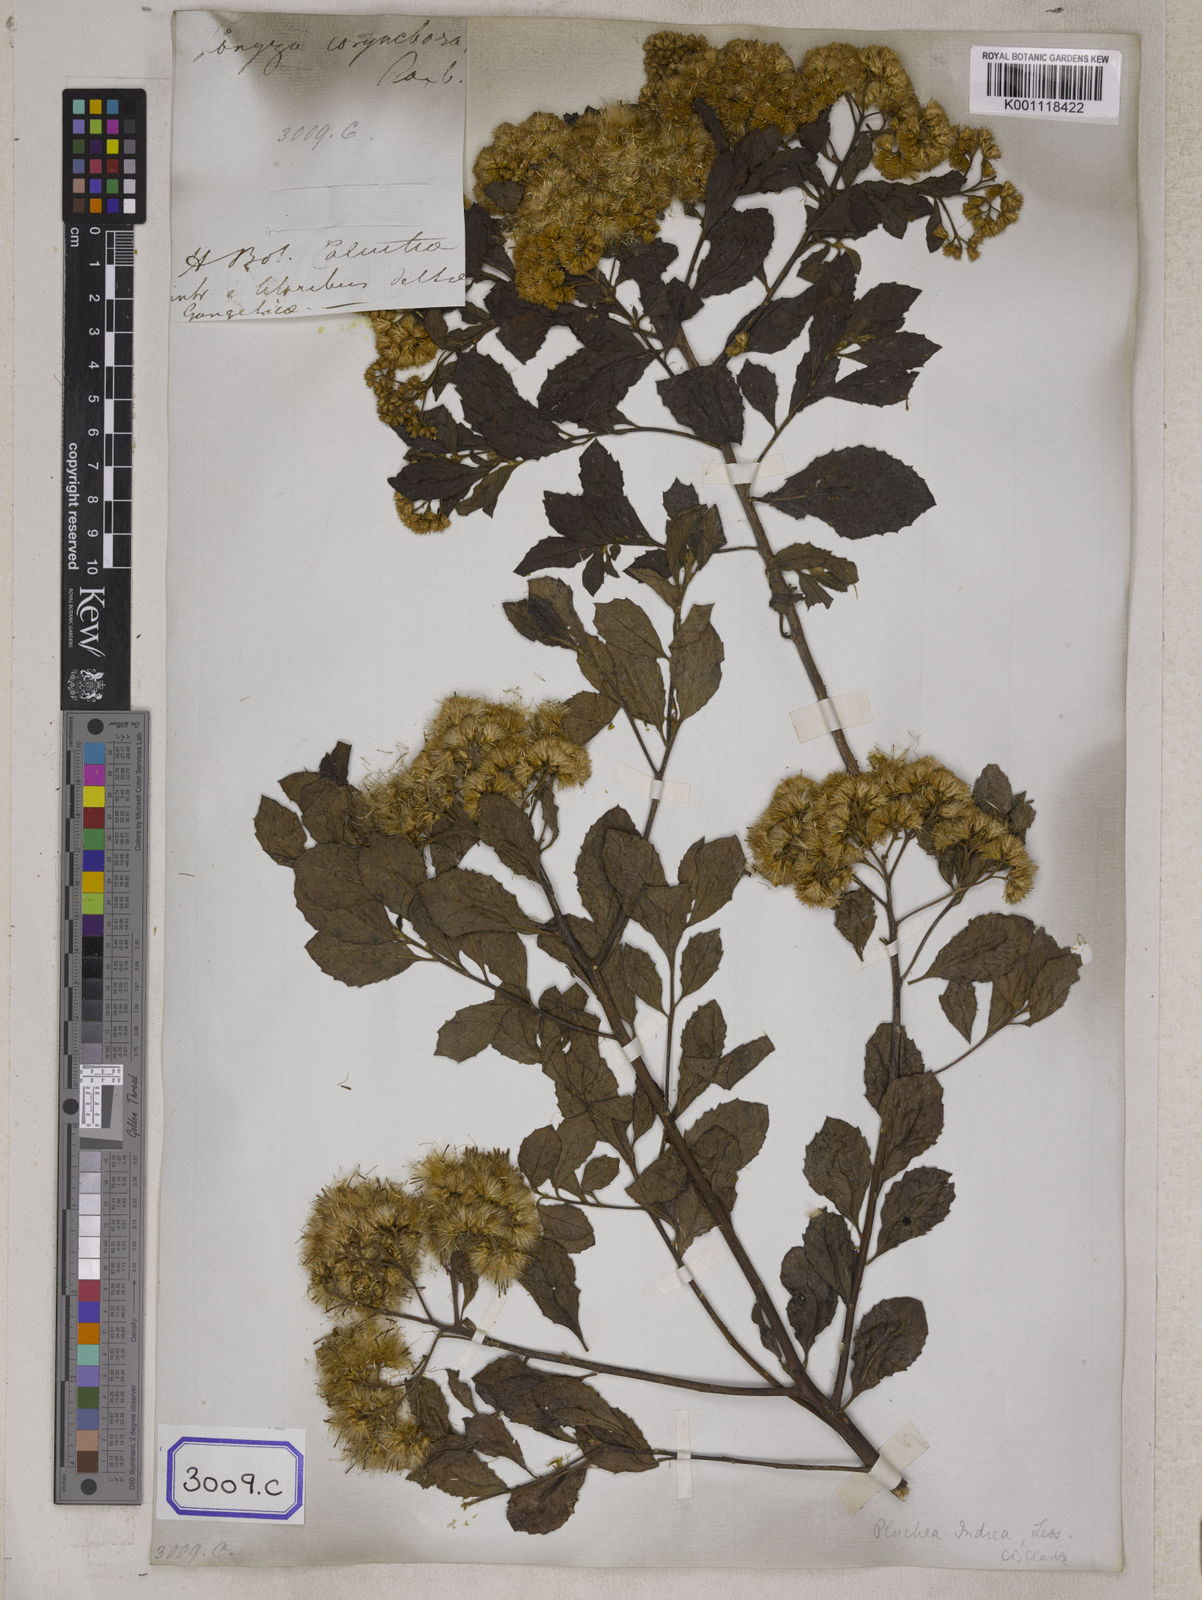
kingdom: Plantae
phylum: Tracheophyta
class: Magnoliopsida
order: Asterales
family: Asteraceae
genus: Pluchea
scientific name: Pluchea indica
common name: Indian fleabane
